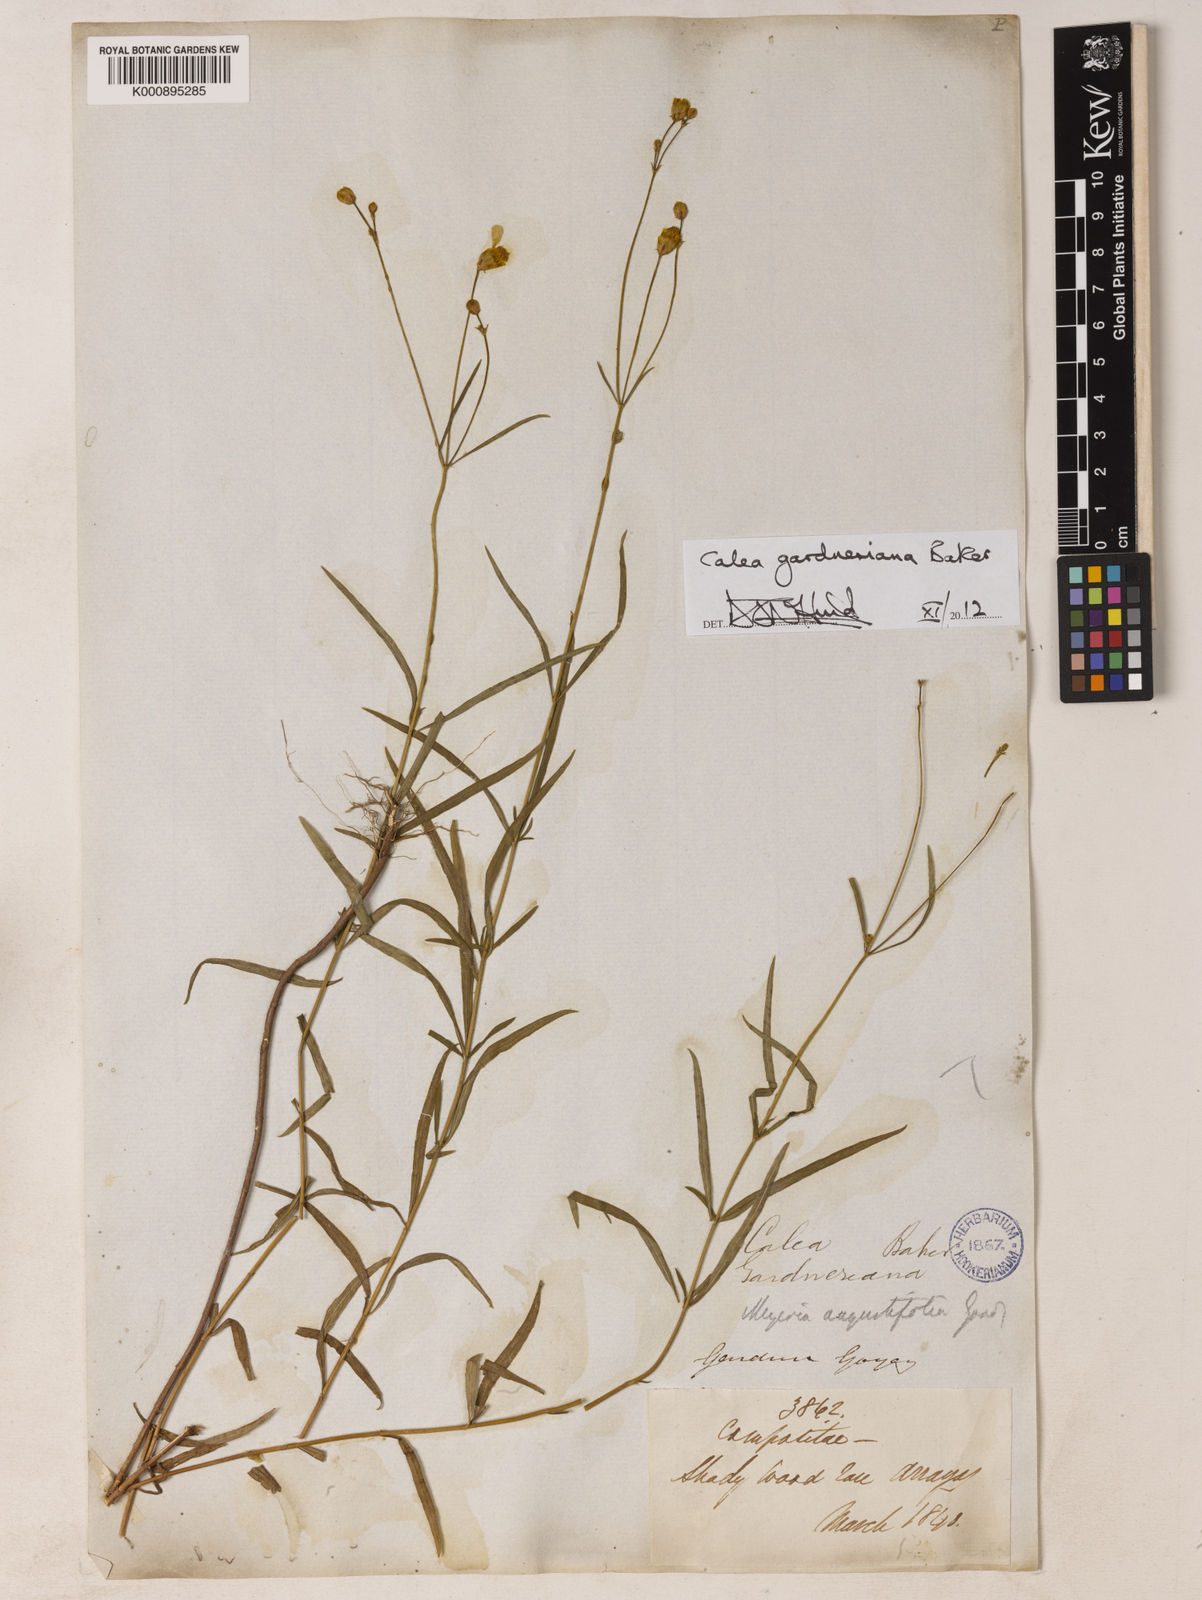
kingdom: Plantae
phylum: Tracheophyta
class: Magnoliopsida
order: Asterales
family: Asteraceae
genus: Calea
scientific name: Calea gardneriana
